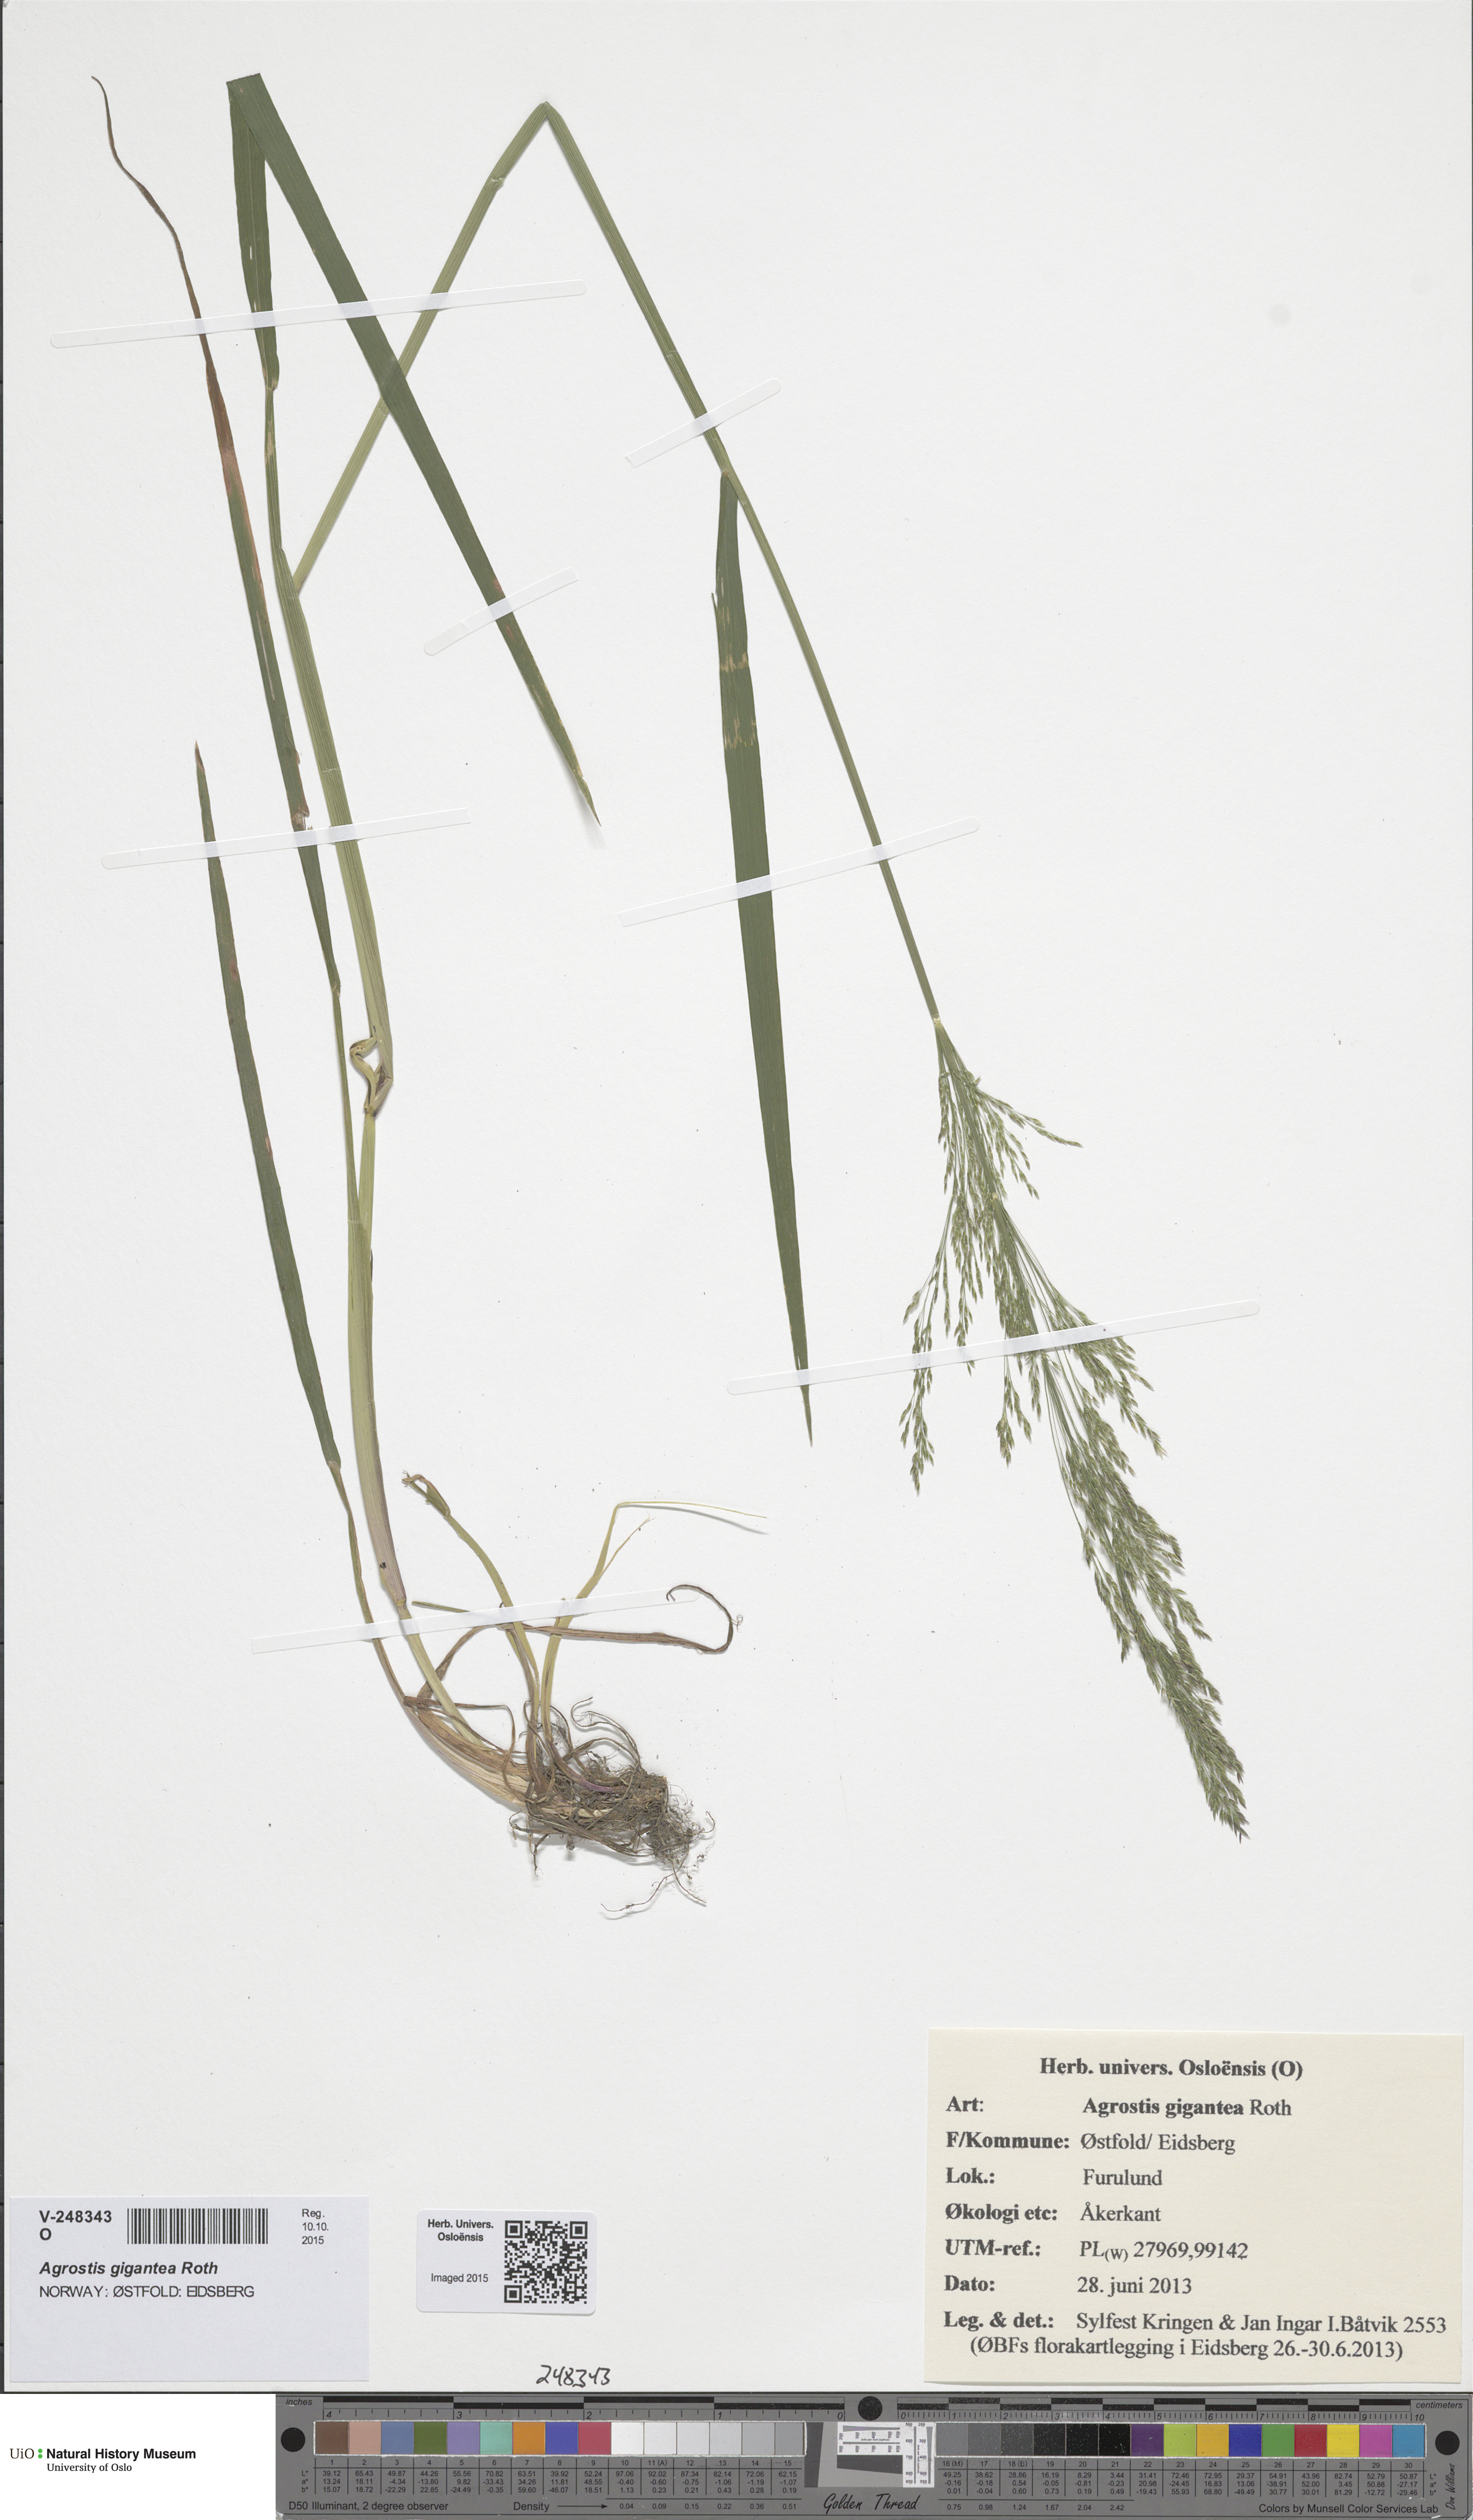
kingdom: Plantae
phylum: Tracheophyta
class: Liliopsida
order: Poales
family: Poaceae
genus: Agrostis
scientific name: Agrostis capillaris
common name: Colonial bentgrass
